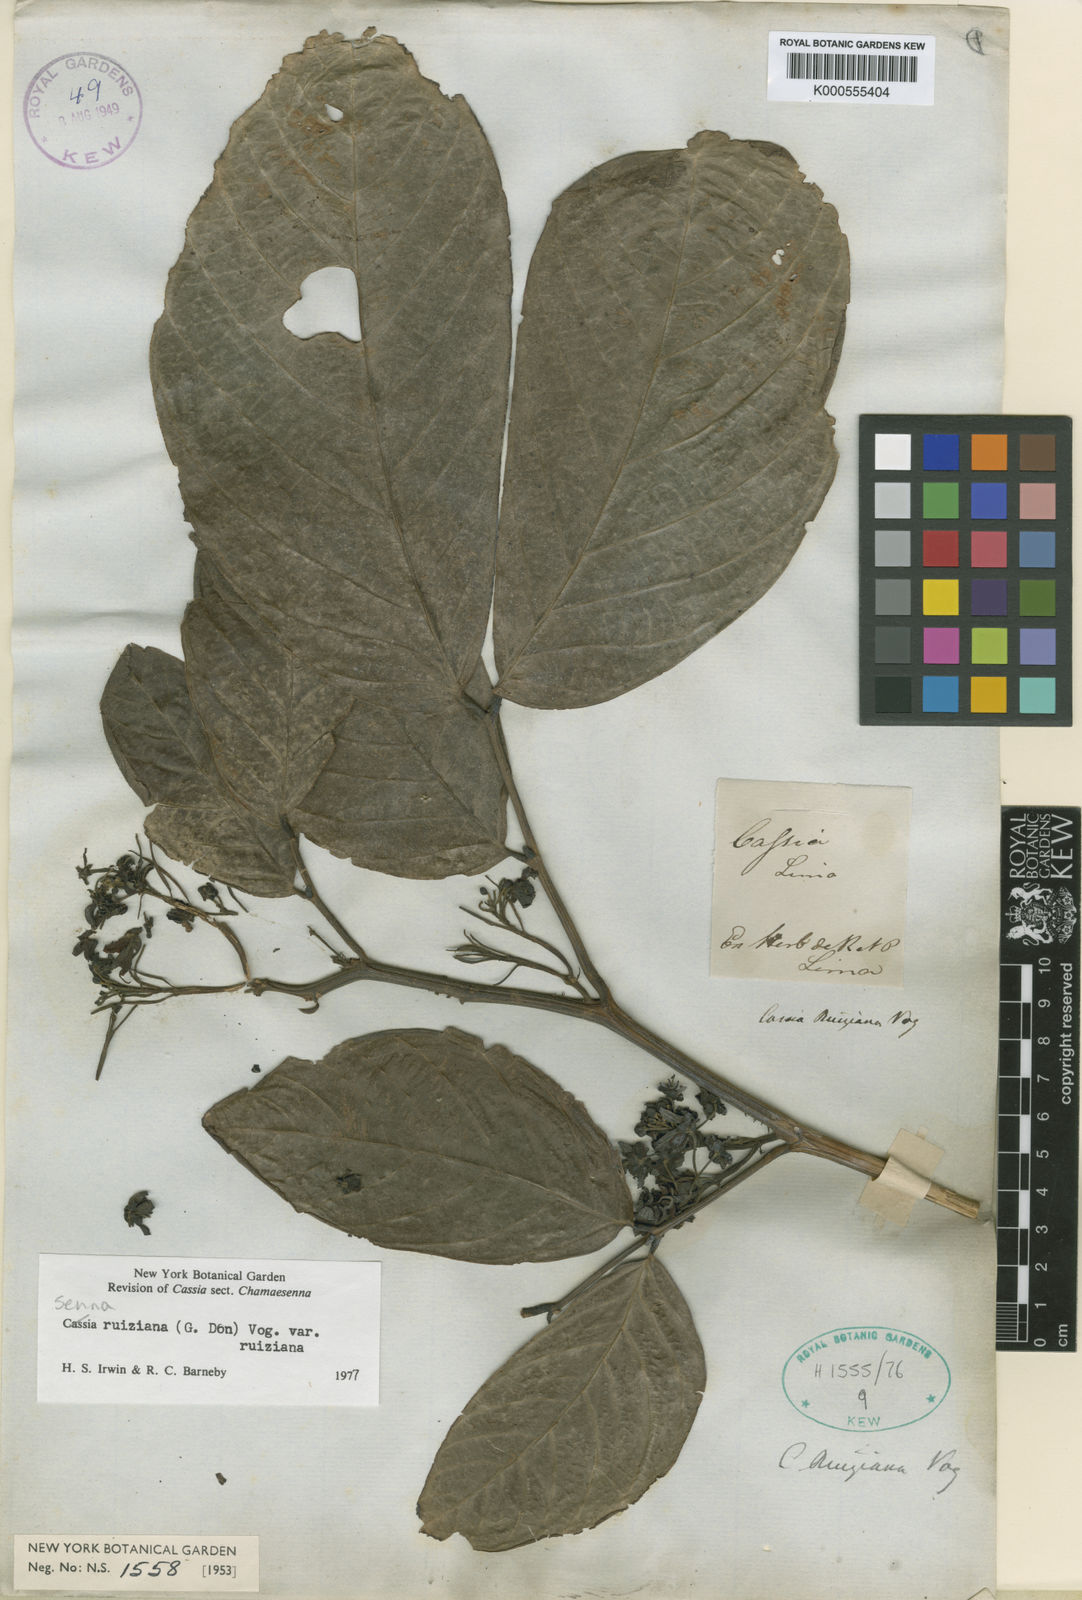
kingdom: Plantae
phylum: Tracheophyta
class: Magnoliopsida
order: Fabales
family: Fabaceae
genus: Senna
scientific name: Senna ruiziana
